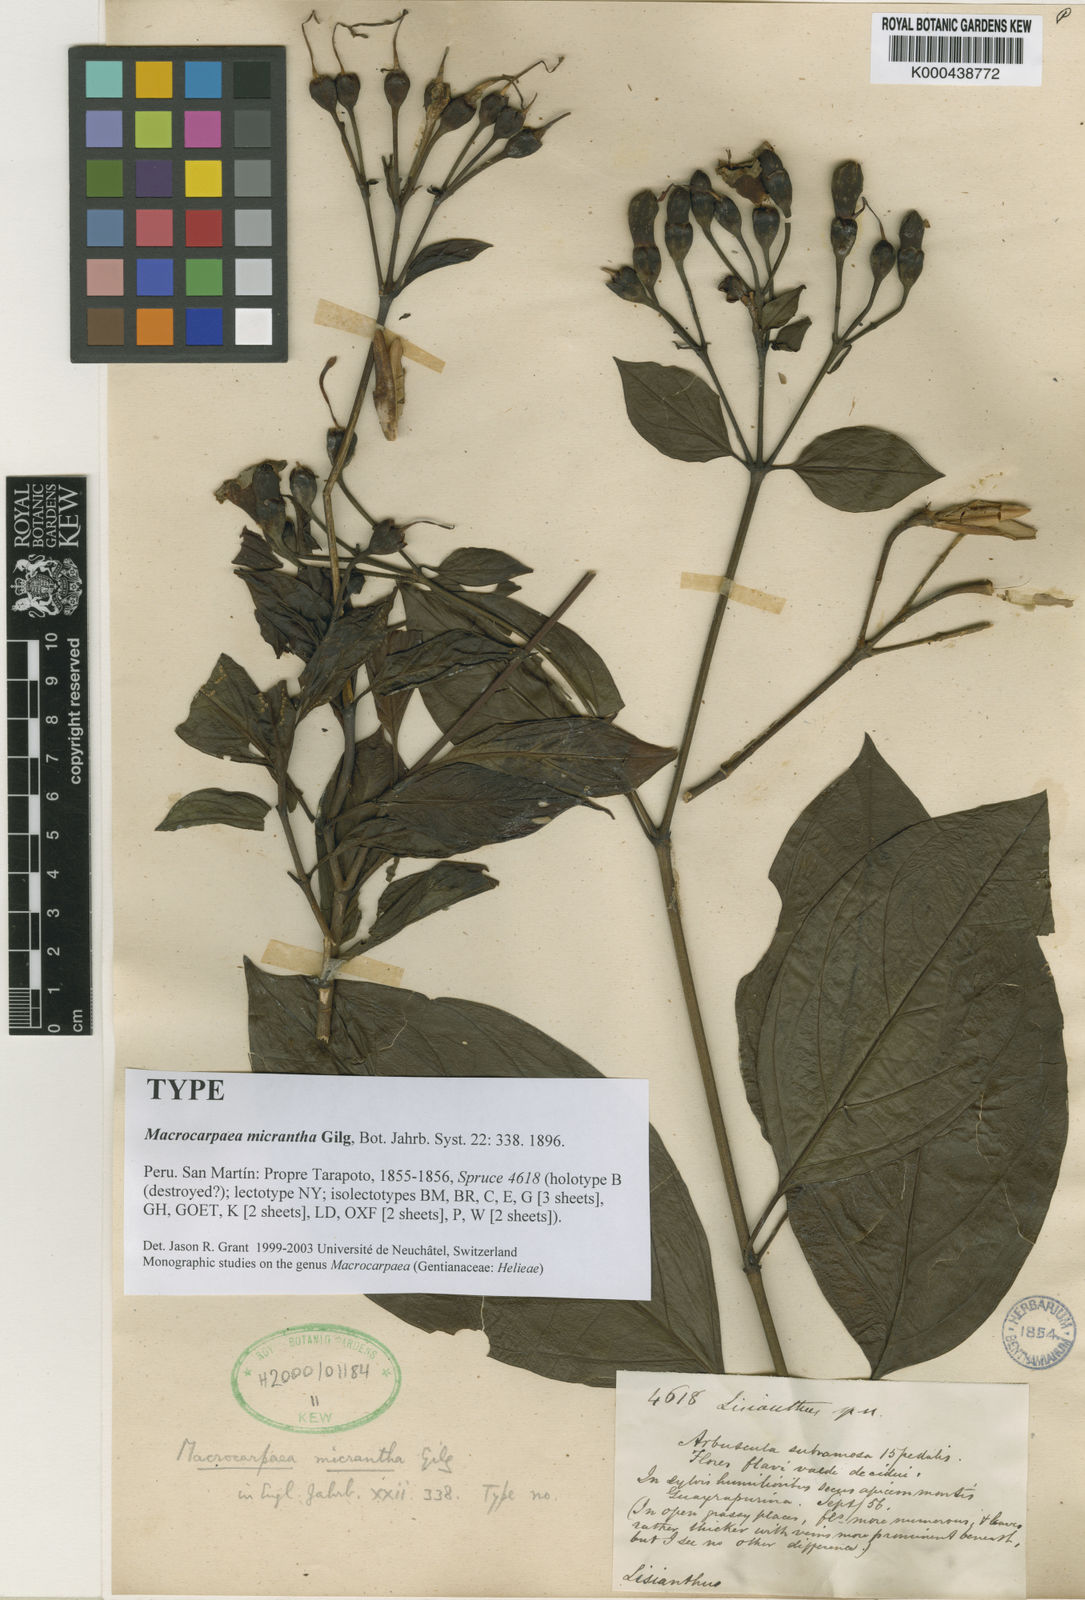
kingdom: Plantae
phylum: Tracheophyta
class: Magnoliopsida
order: Gentianales
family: Gentianaceae
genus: Macrocarpaea
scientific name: Macrocarpaea micrantha
